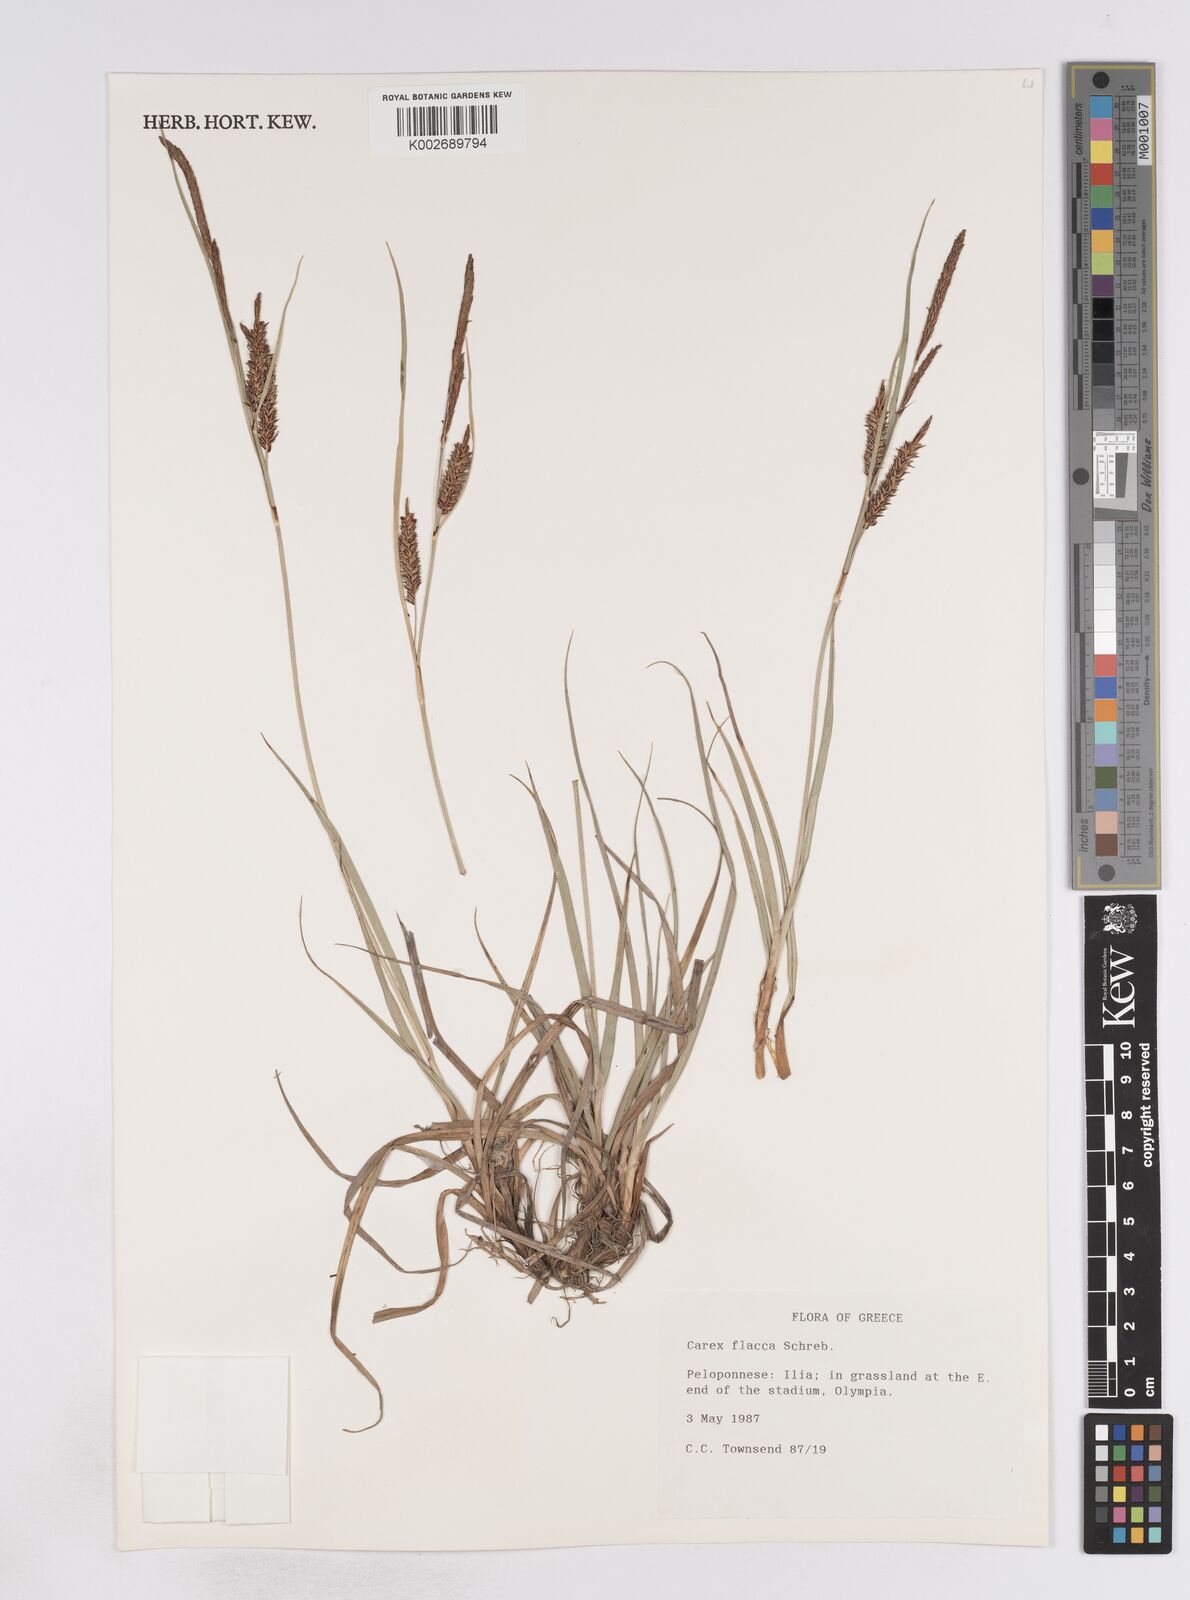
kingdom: Plantae
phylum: Tracheophyta
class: Liliopsida
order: Poales
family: Cyperaceae
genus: Carex
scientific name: Carex flacca
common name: Glaucous sedge
